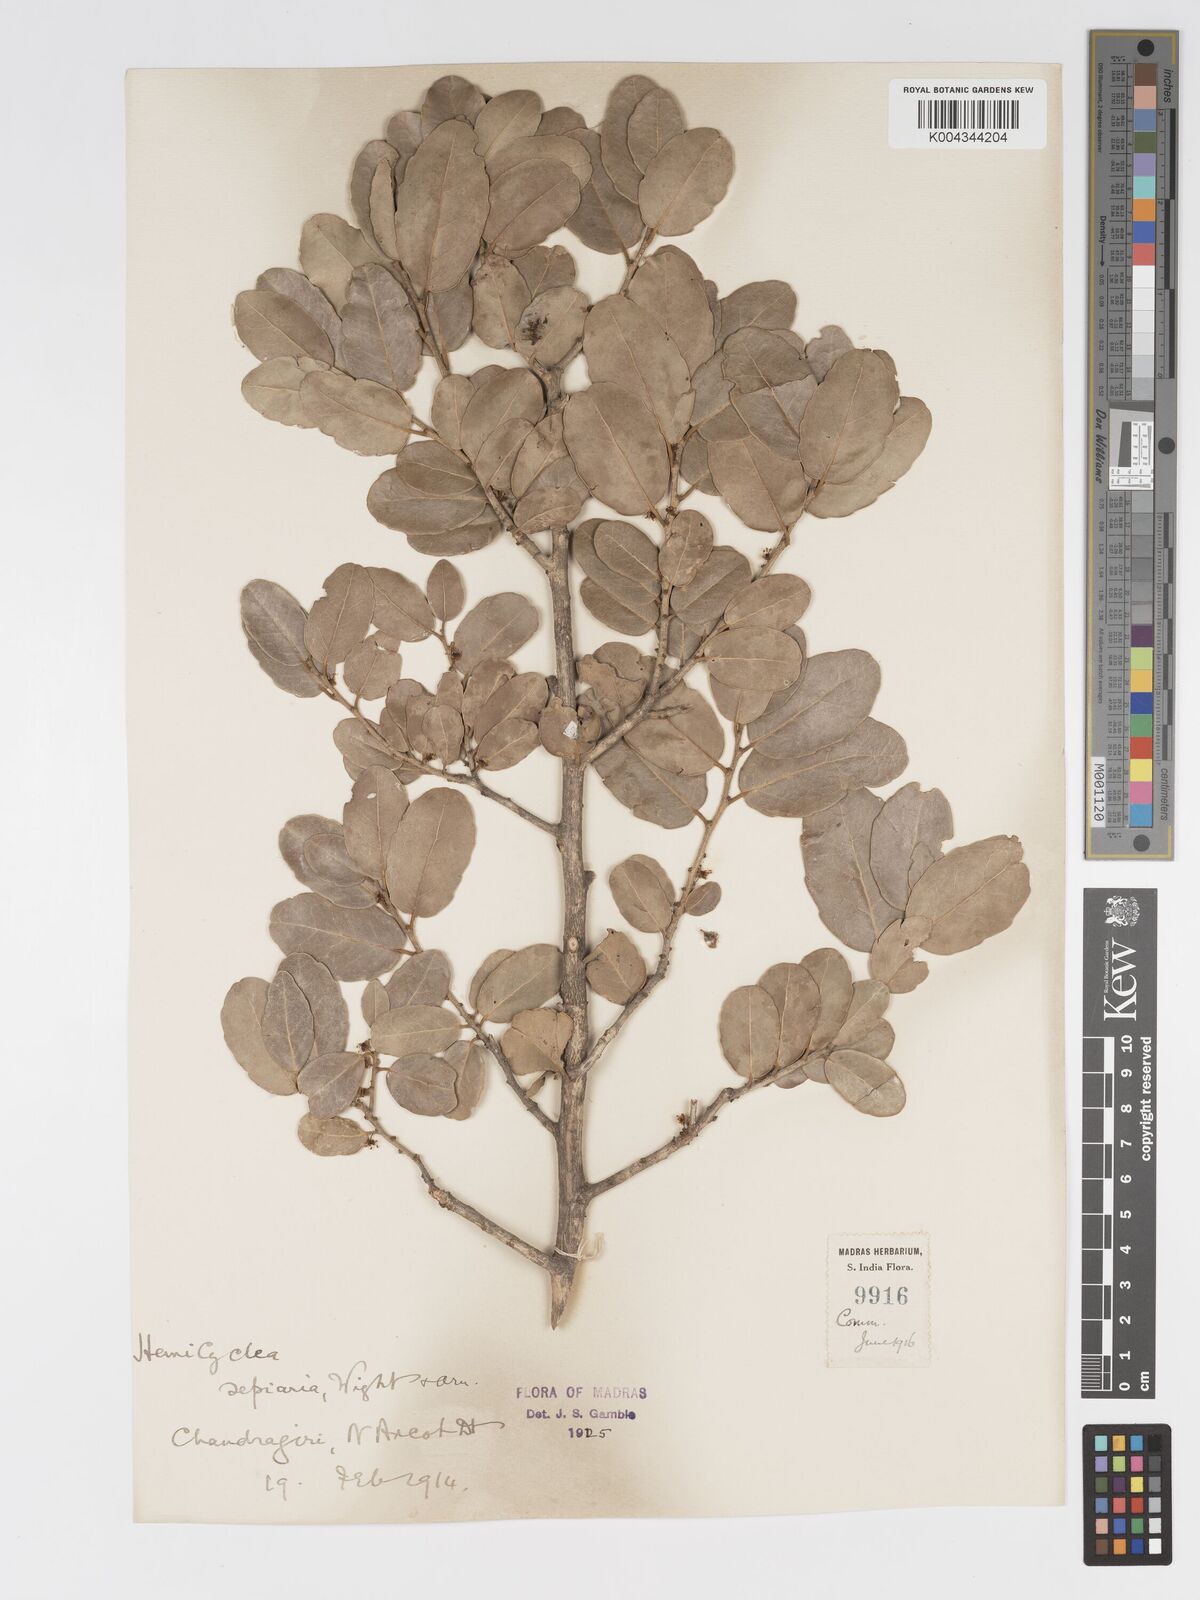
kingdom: Plantae
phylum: Tracheophyta
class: Magnoliopsida
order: Malpighiales
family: Putranjivaceae
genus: Drypetes
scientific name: Drypetes sepiaria
